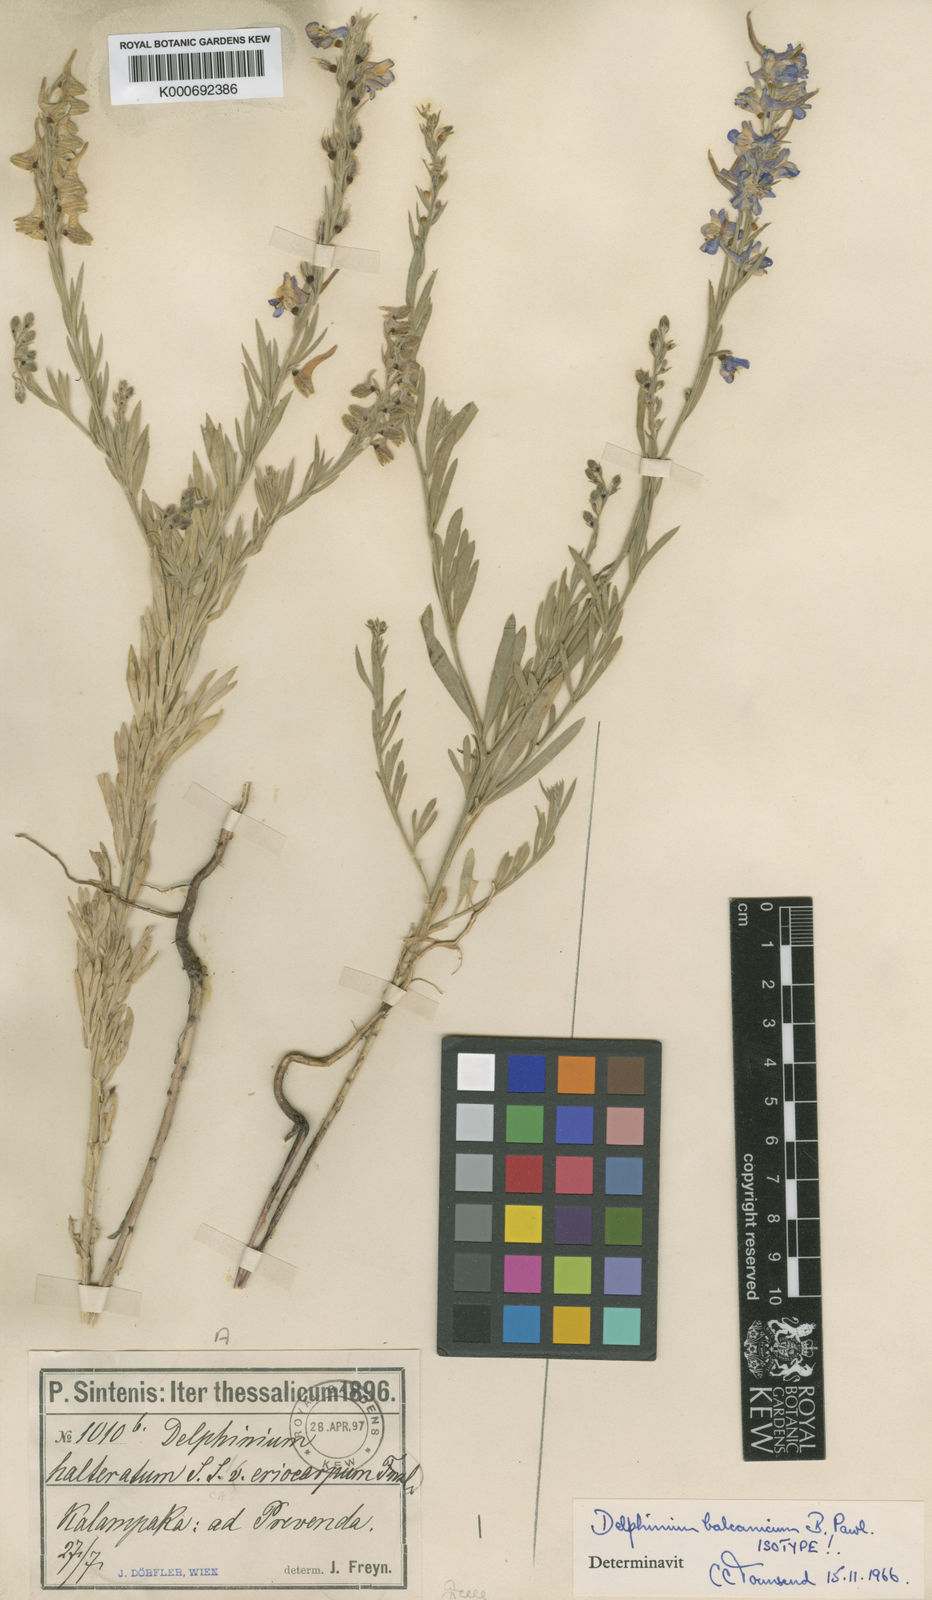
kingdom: Plantae
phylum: Tracheophyta
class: Magnoliopsida
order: Ranunculales
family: Ranunculaceae
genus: Delphinium
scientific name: Delphinium balcanicum
